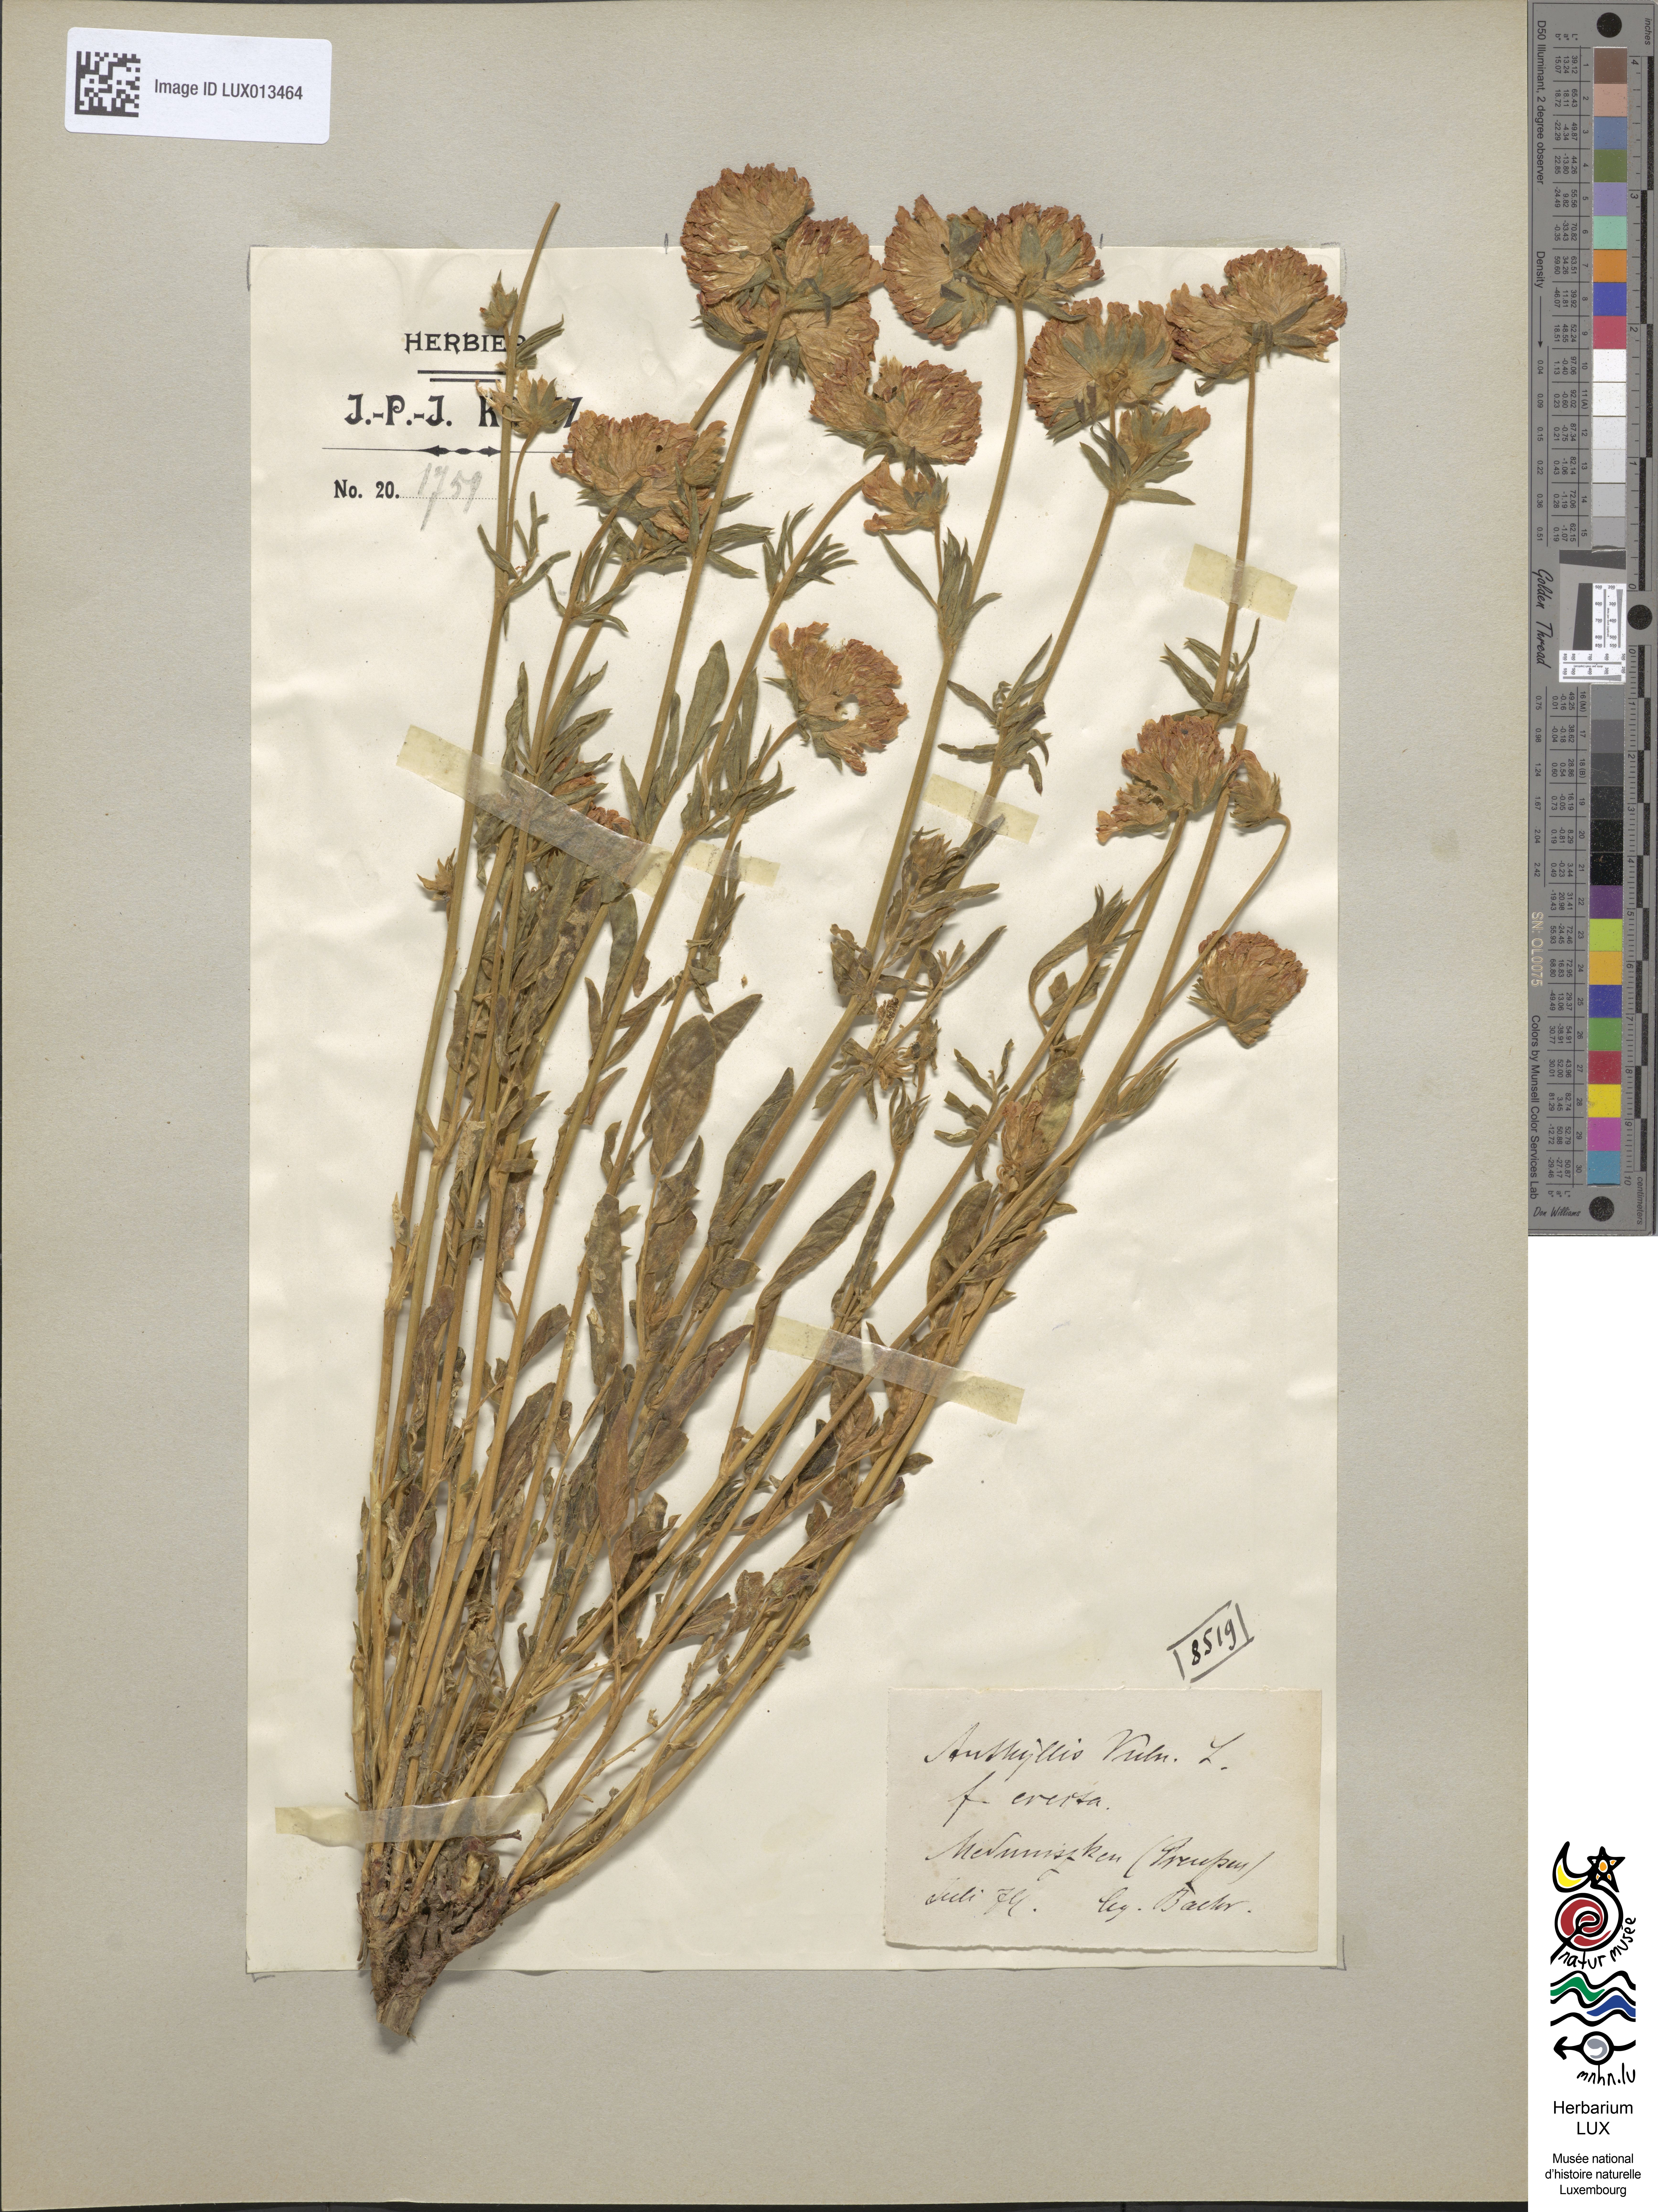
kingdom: Plantae
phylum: Tracheophyta
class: Magnoliopsida
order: Fabales
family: Fabaceae
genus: Anthyllis
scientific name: Anthyllis vulneraria
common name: Kidney vetch
